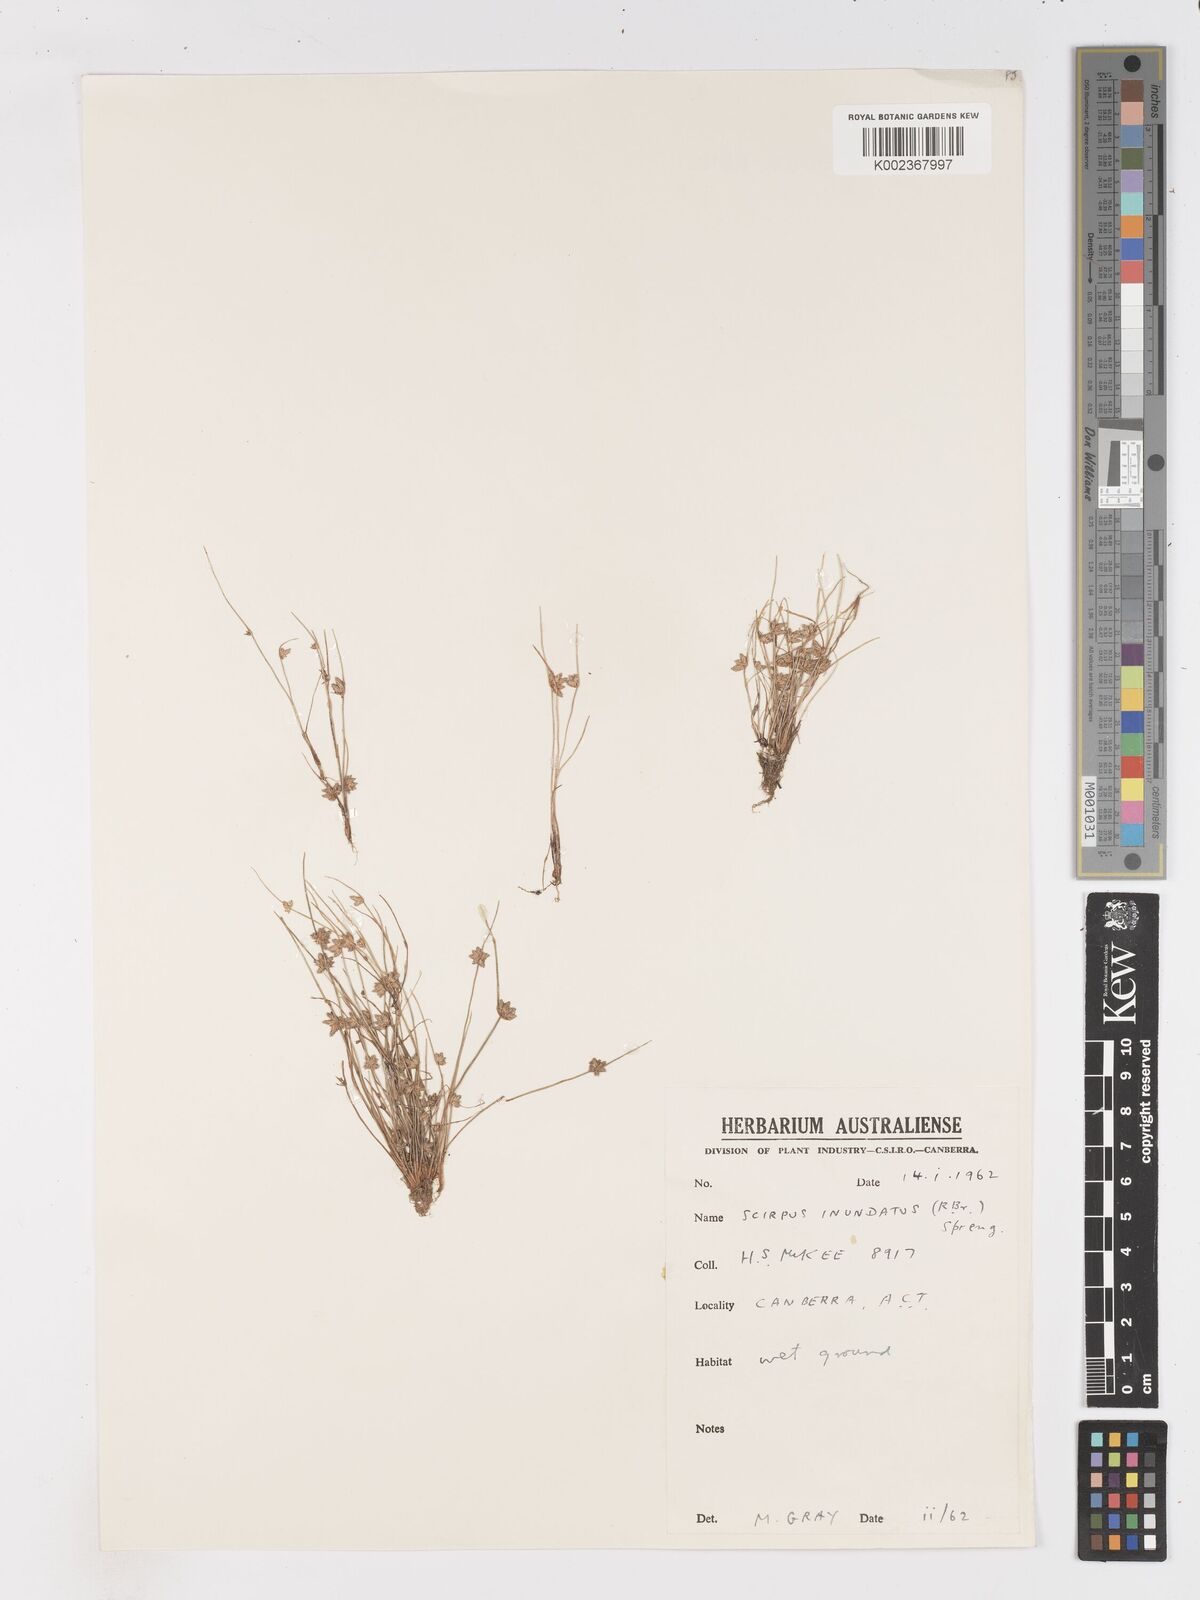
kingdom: Plantae
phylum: Tracheophyta
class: Liliopsida
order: Poales
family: Cyperaceae
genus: Isolepis
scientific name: Isolepis inundata
